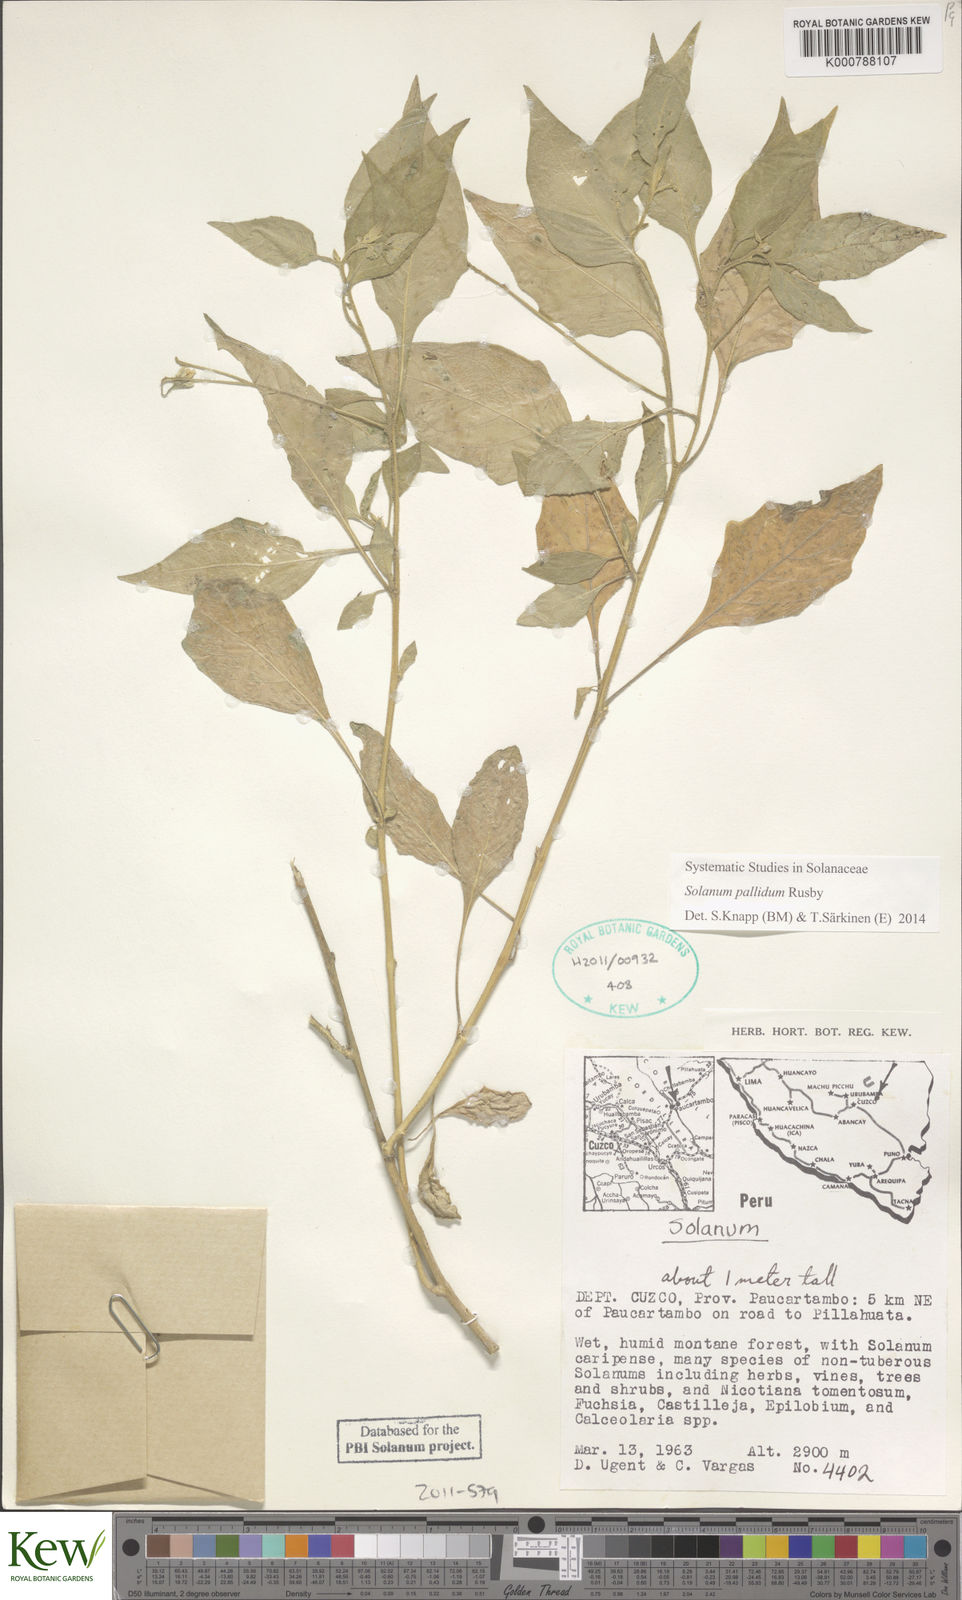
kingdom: Plantae
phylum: Tracheophyta
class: Magnoliopsida
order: Solanales
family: Solanaceae
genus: Solanum
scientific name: Solanum pallidum
